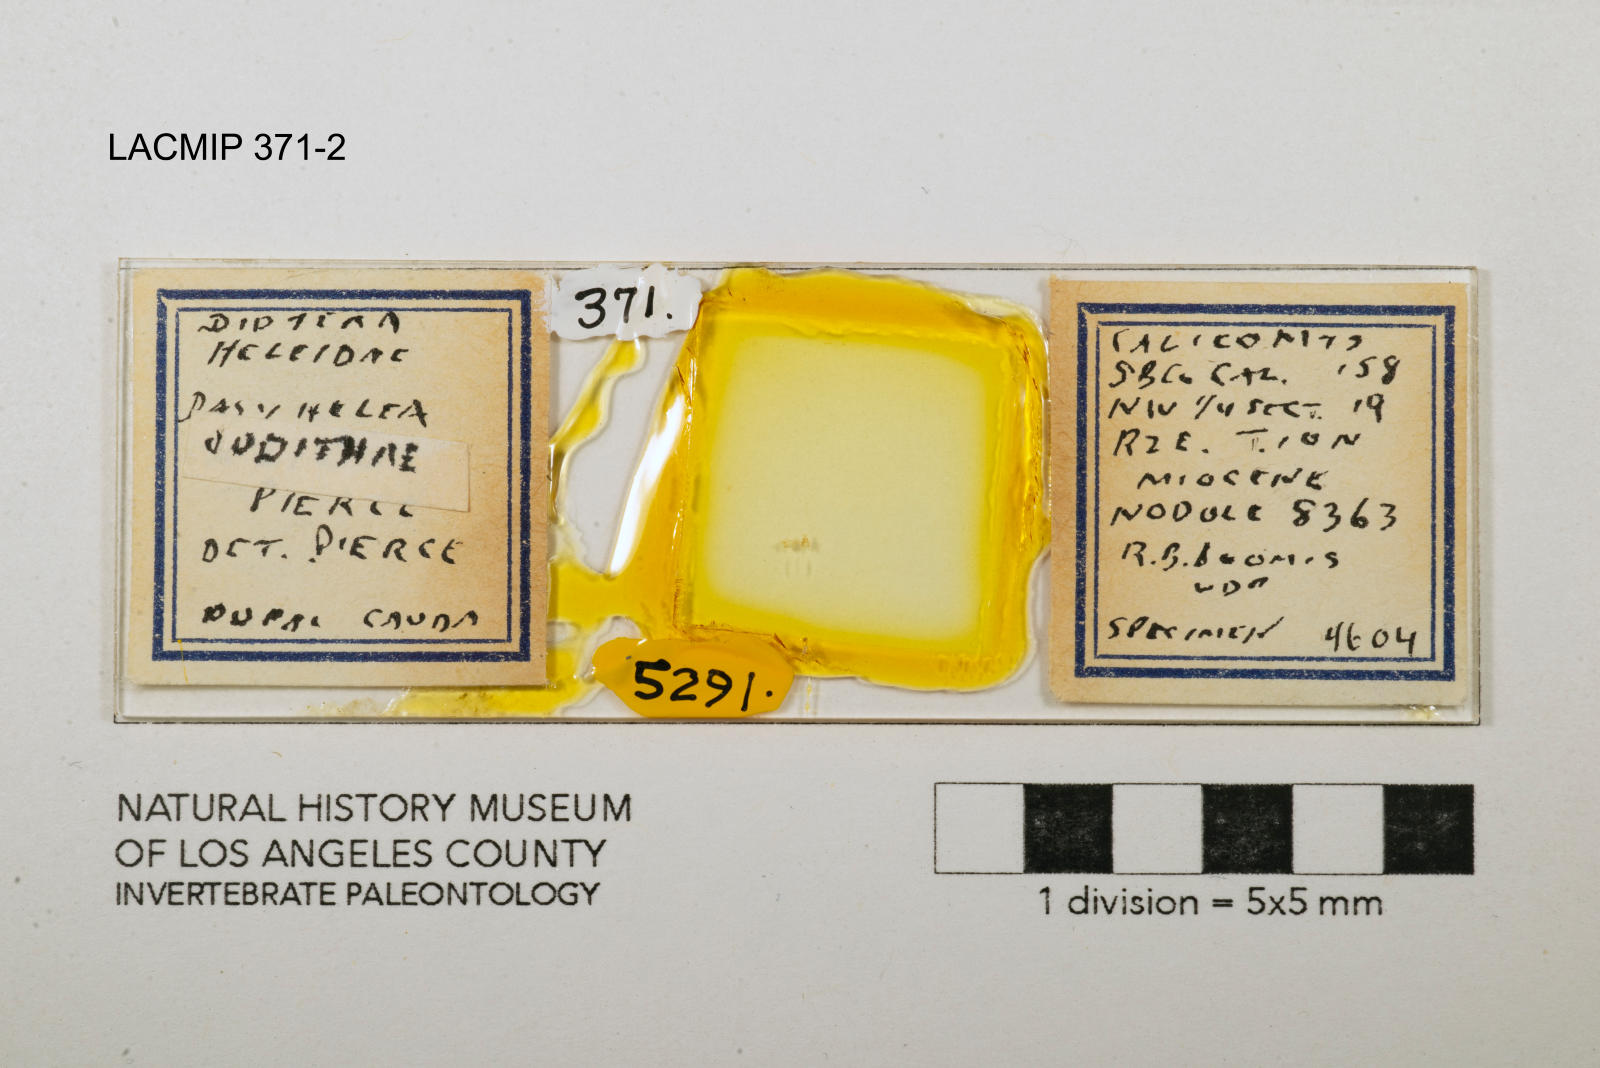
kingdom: Animalia
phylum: Arthropoda
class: Insecta
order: Diptera
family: Ceratopogonidae
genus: Dasyhelea
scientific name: Dasyhelea judithae
